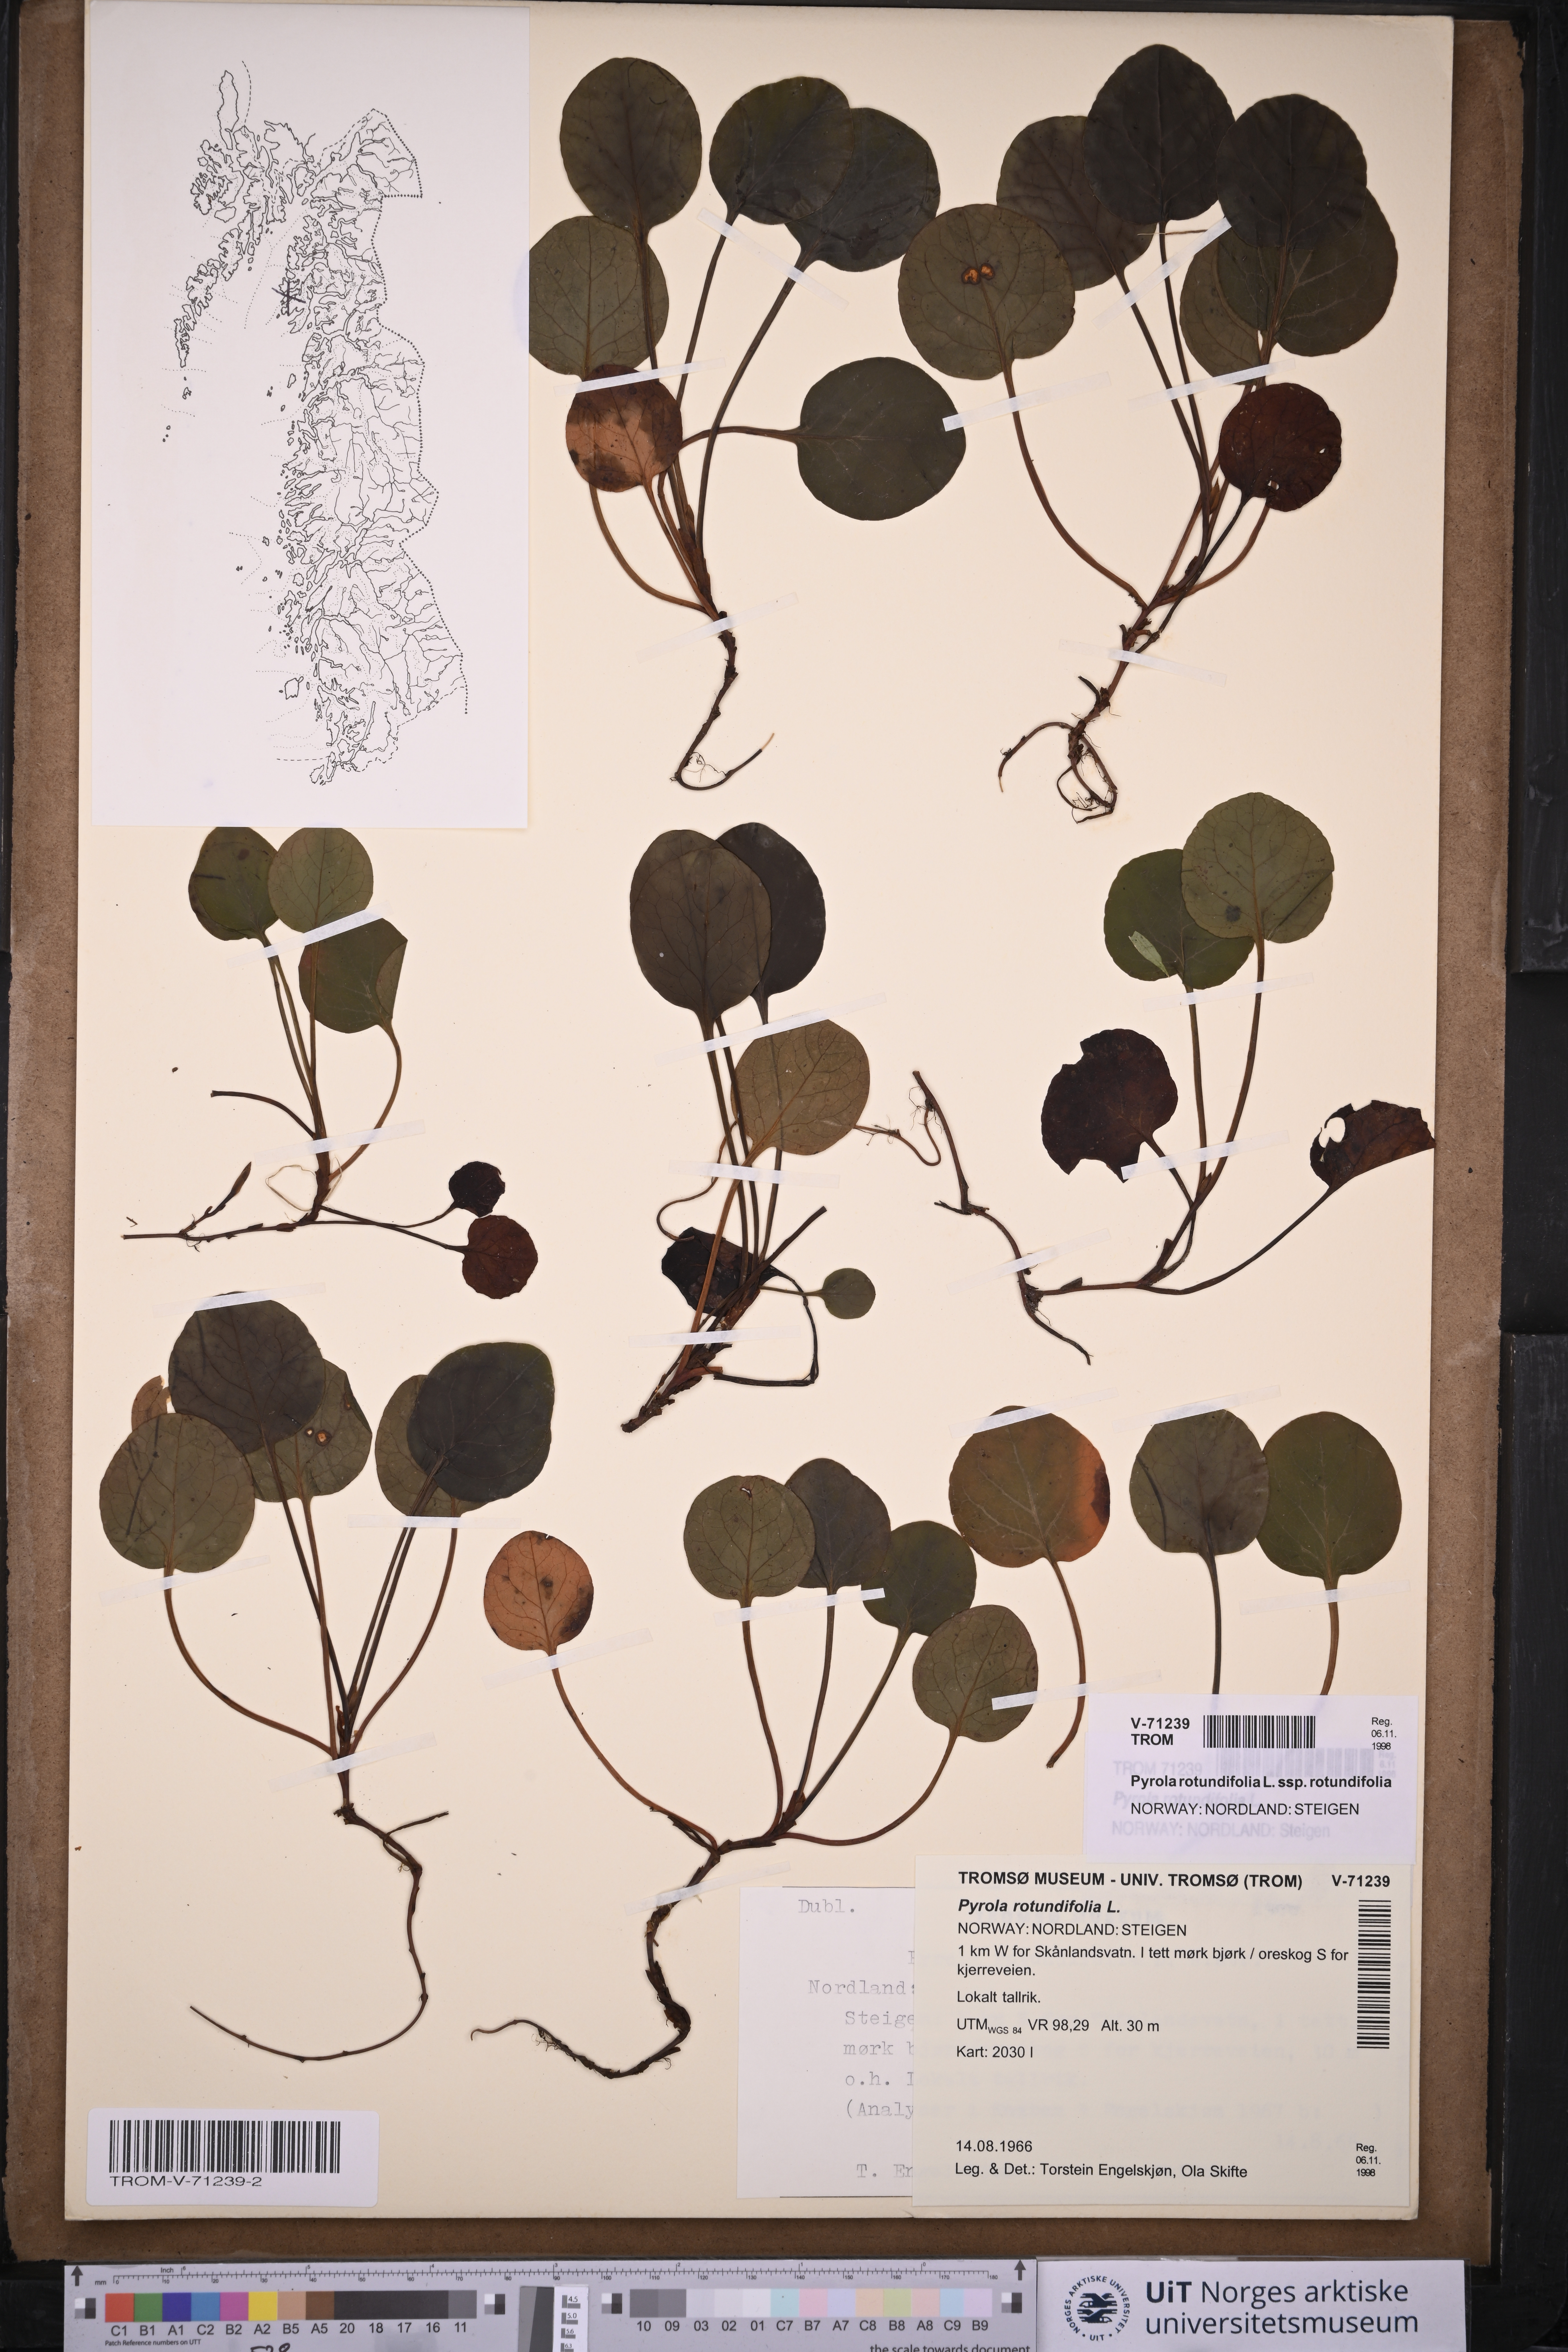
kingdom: Plantae
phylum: Tracheophyta
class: Magnoliopsida
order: Ericales
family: Ericaceae
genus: Pyrola
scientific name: Pyrola rotundifolia
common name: Round-leaved wintergreen
